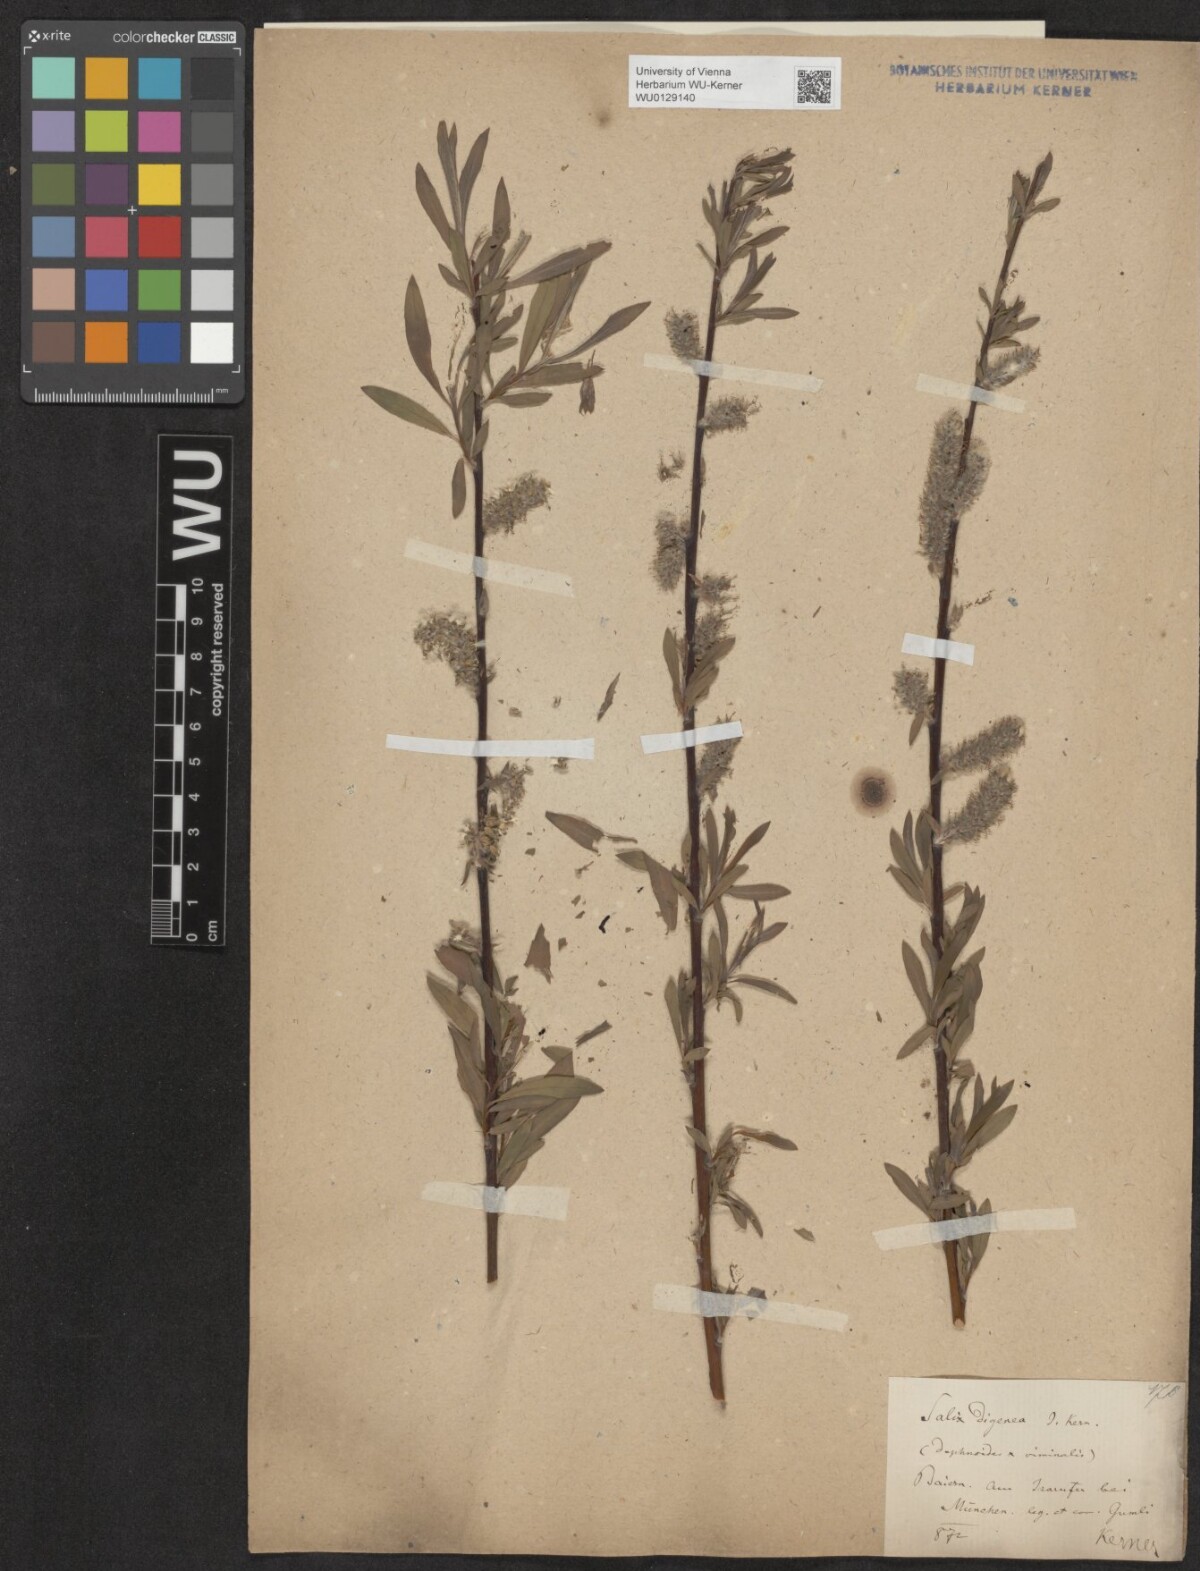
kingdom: Plantae
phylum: Tracheophyta
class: Magnoliopsida
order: Malpighiales
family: Salicaceae
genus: Salix
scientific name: Salix digenea
